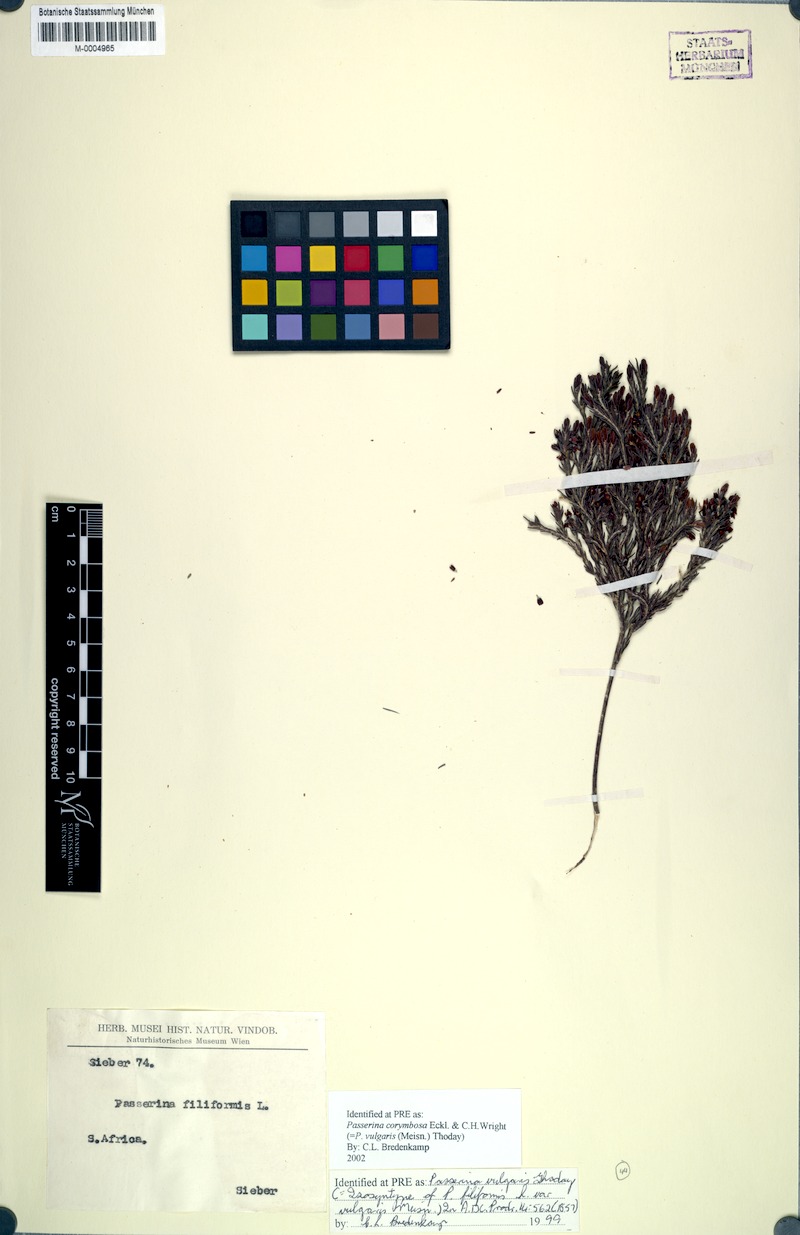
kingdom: Plantae
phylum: Tracheophyta
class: Magnoliopsida
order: Malvales
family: Thymelaeaceae
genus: Passerina
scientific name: Passerina corymbosa
